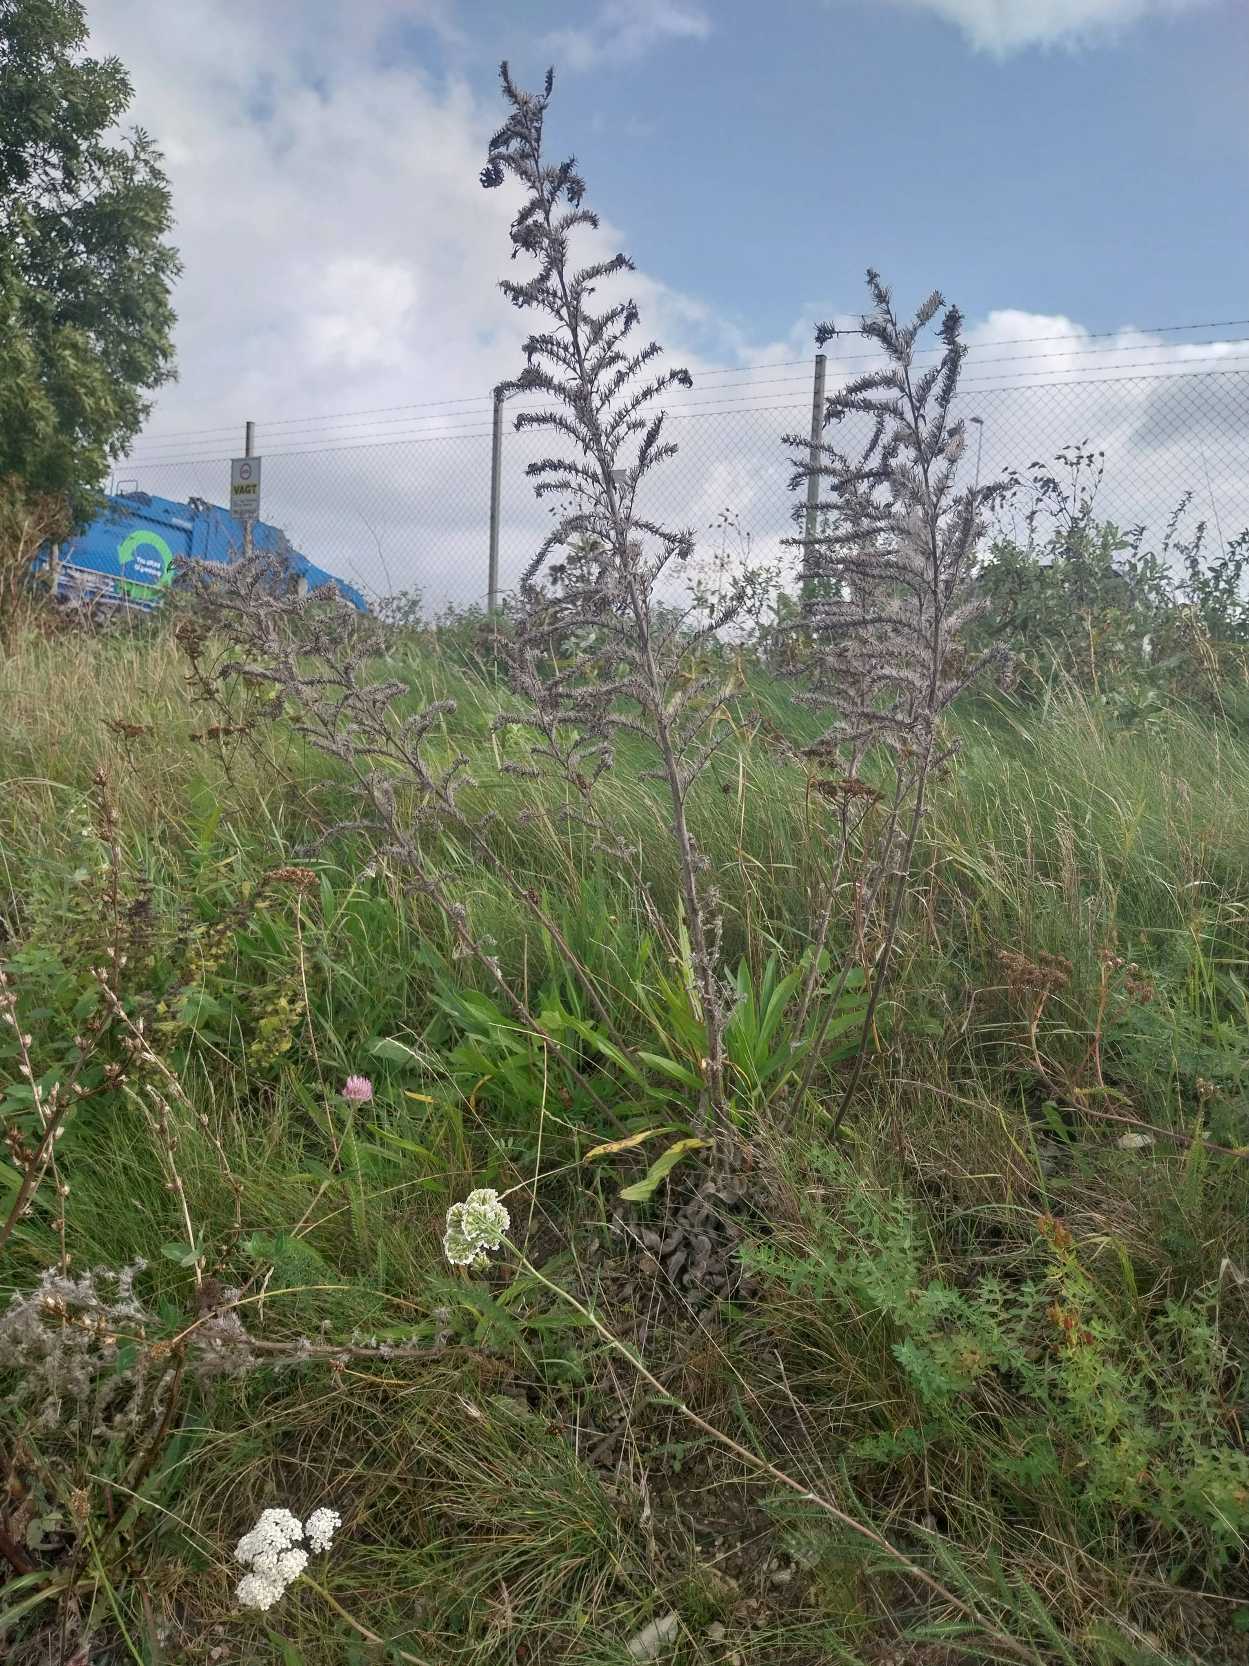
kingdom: Plantae
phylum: Tracheophyta
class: Magnoliopsida
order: Boraginales
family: Boraginaceae
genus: Echium
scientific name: Echium vulgare
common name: Slangehoved
